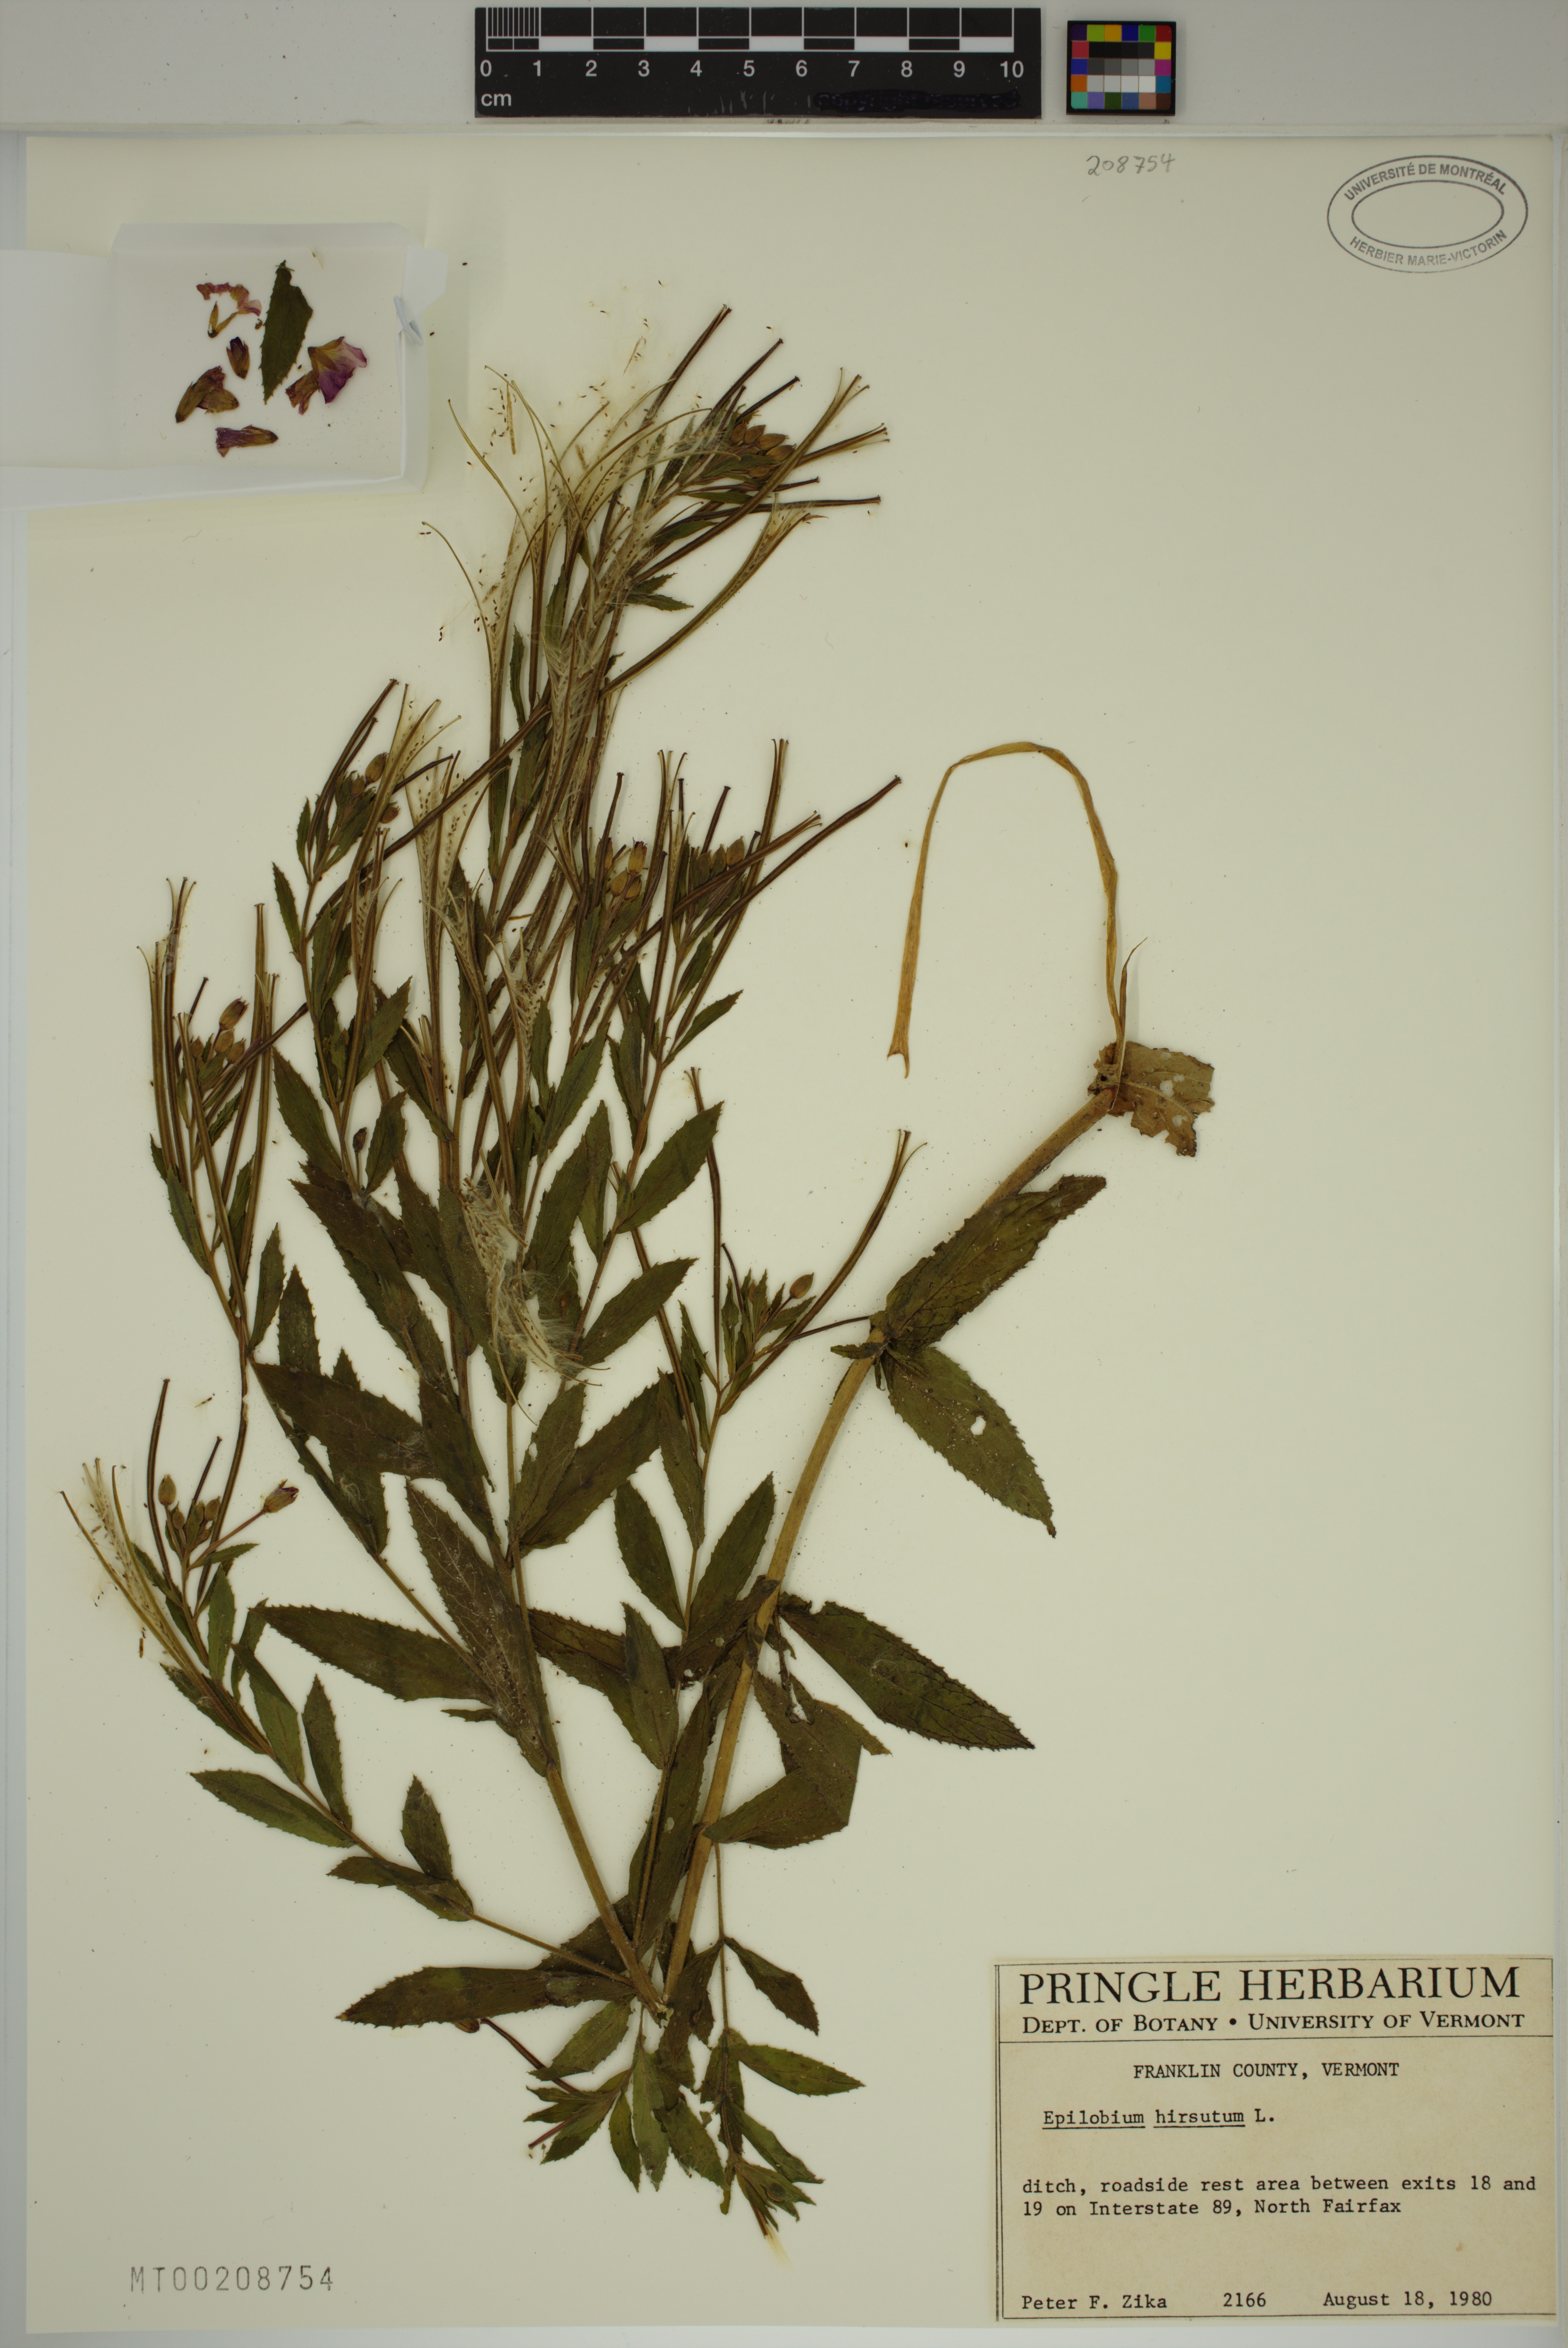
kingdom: Plantae
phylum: Tracheophyta
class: Magnoliopsida
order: Myrtales
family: Onagraceae
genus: Epilobium
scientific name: Epilobium hirsutum
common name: Great willowherb
